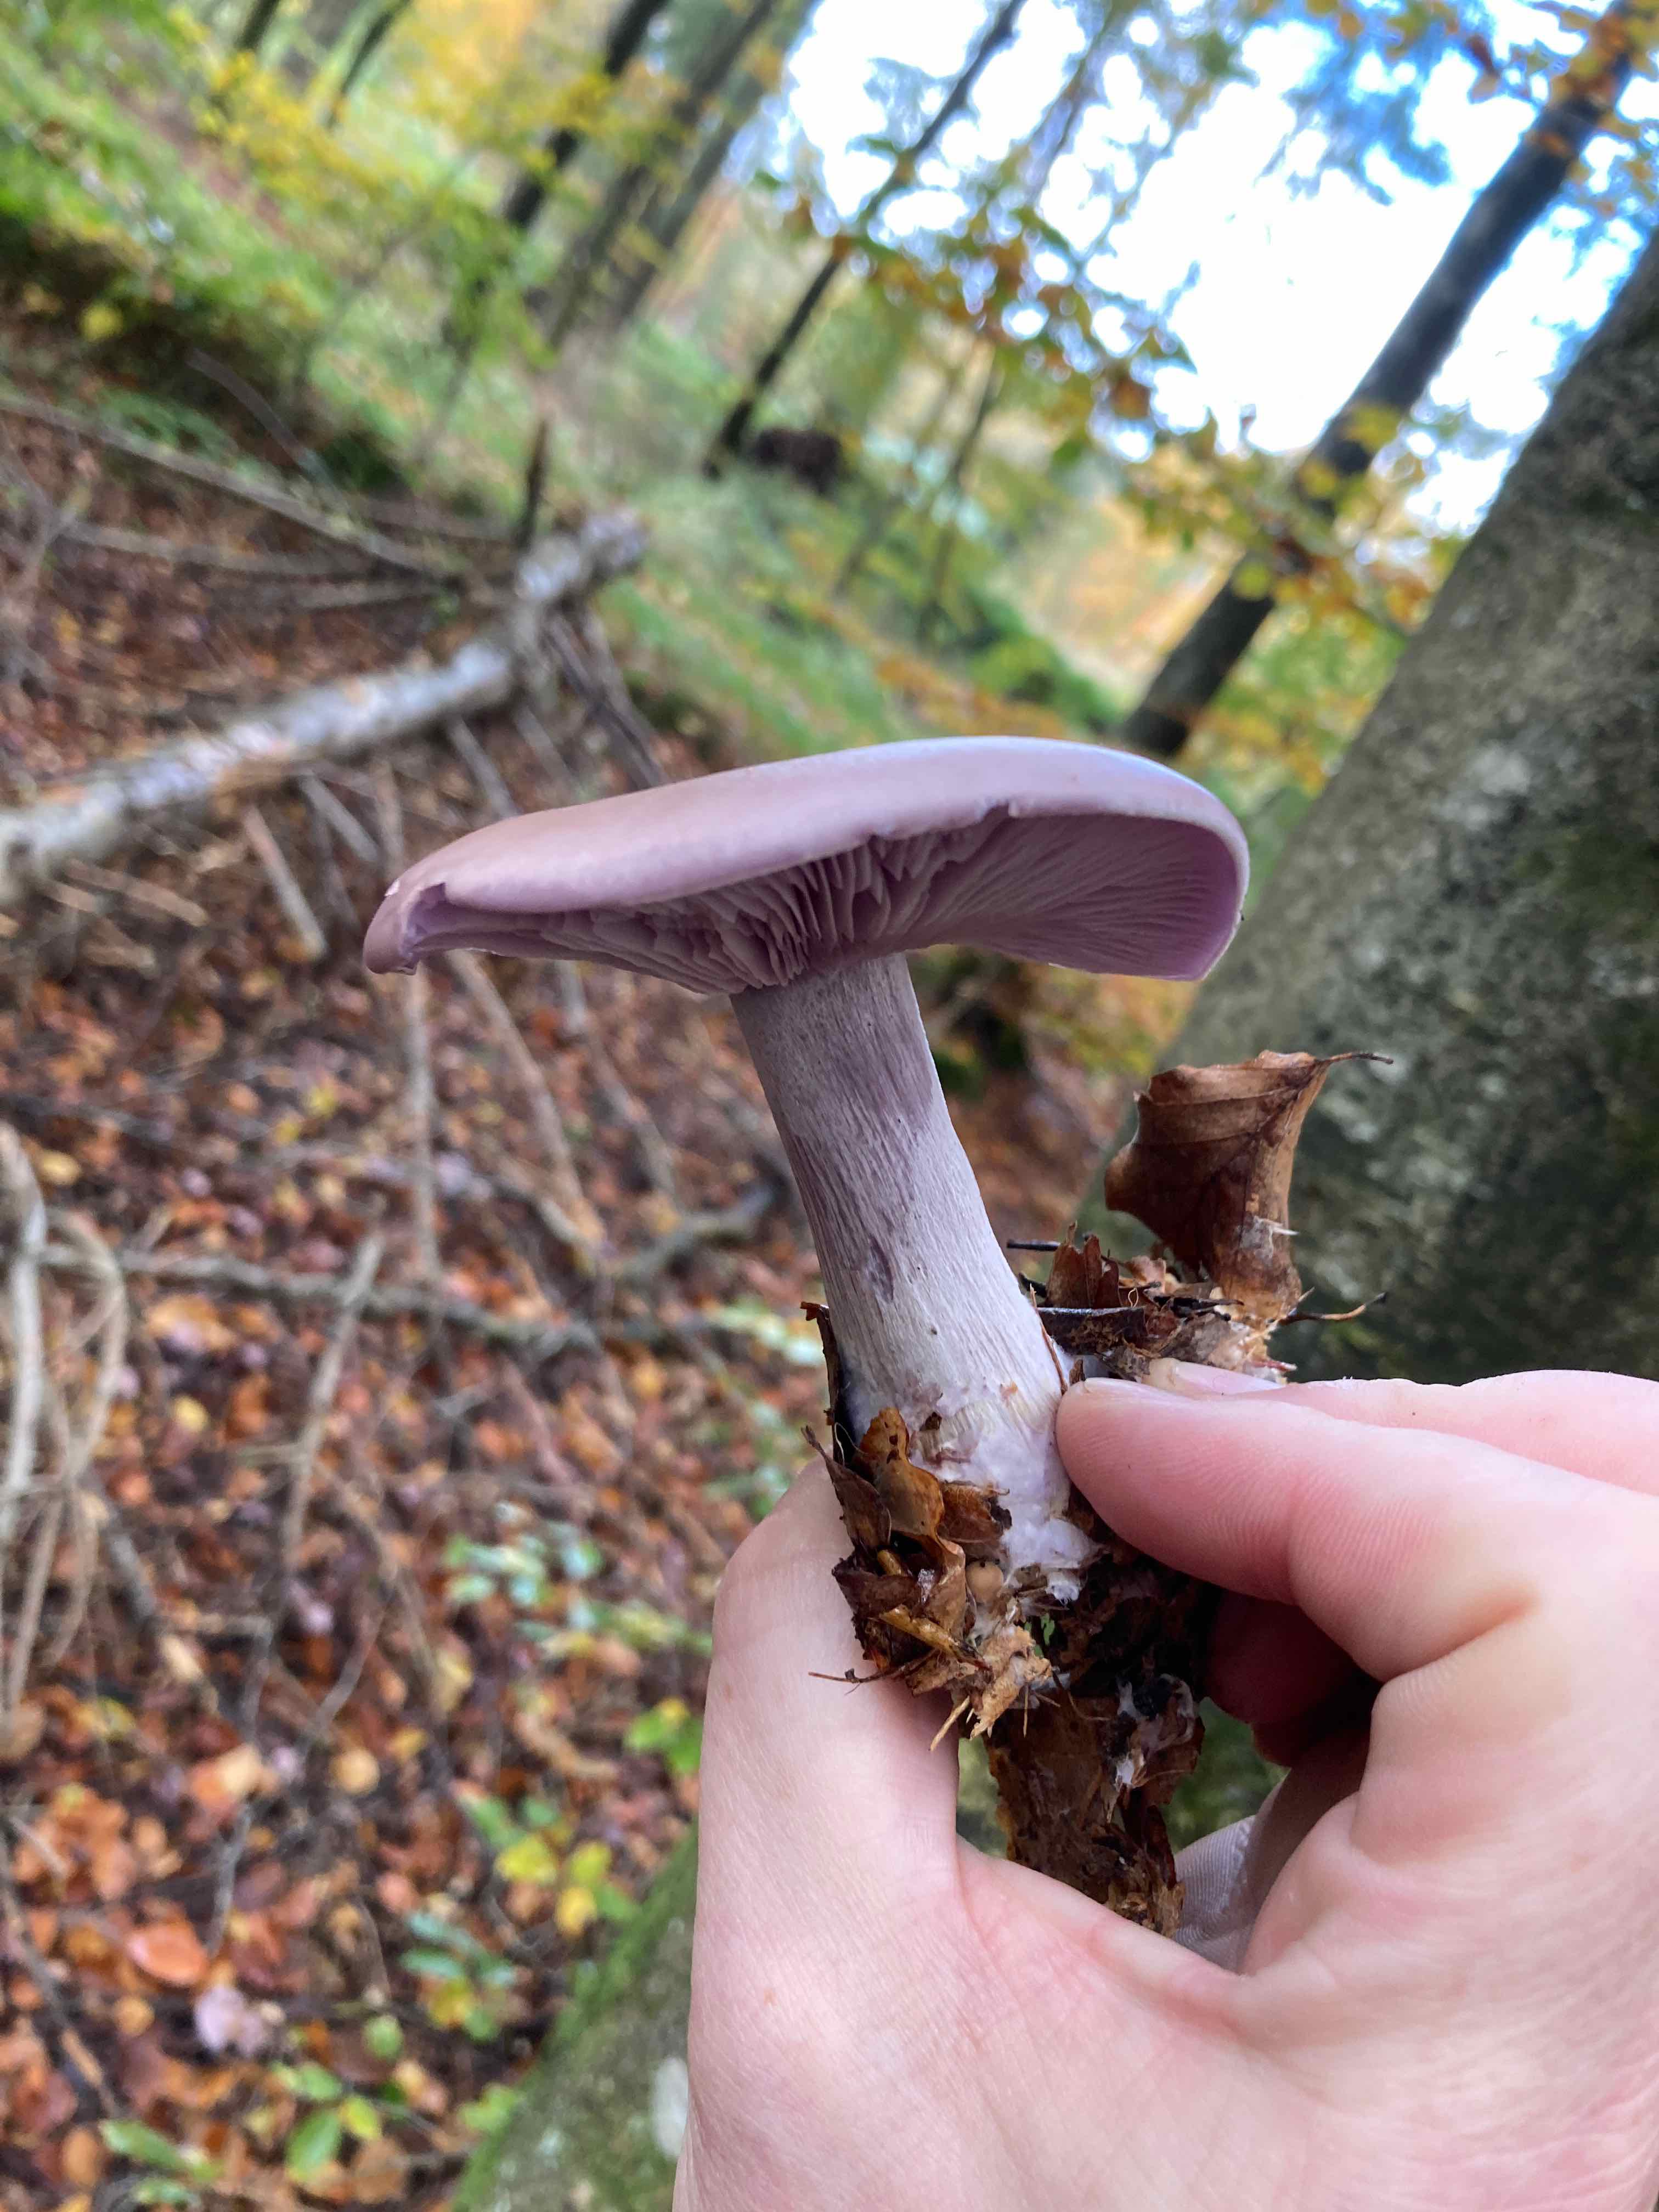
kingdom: Fungi
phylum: Basidiomycota
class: Agaricomycetes
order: Agaricales
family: Tricholomataceae
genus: Lepista
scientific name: Lepista nuda
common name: violet hekseringshat
